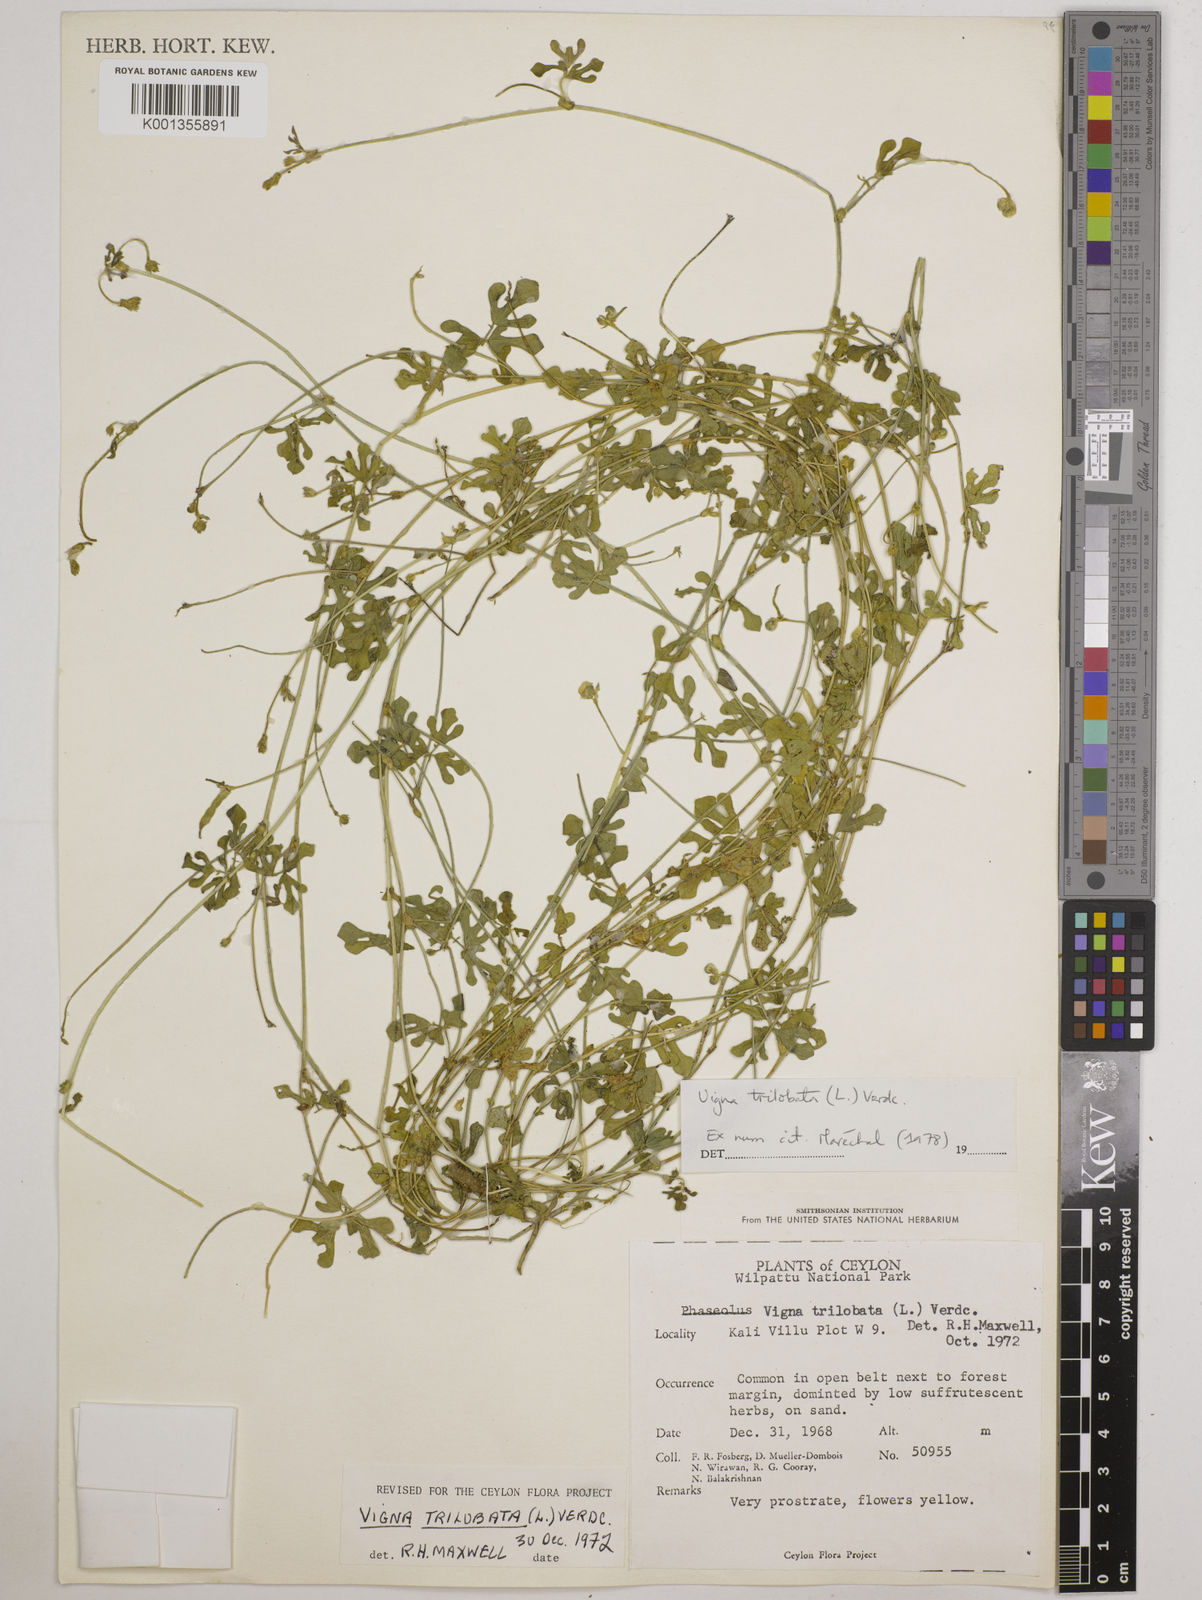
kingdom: Plantae
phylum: Tracheophyta
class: Magnoliopsida
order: Fabales
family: Fabaceae
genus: Vigna
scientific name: Vigna trilobata
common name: Jungli-bean
